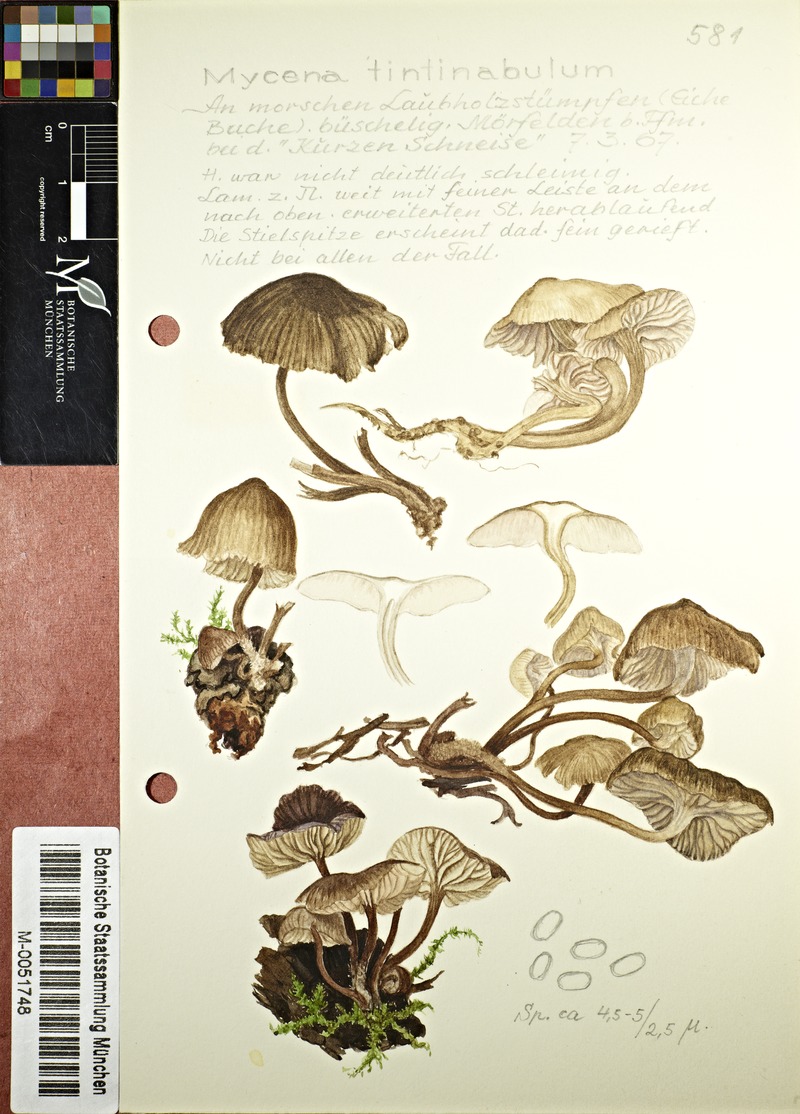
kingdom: Fungi
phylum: Basidiomycota
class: Agaricomycetes
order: Agaricales
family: Mycenaceae
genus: Mycena
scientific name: Mycena tintinnabulum
